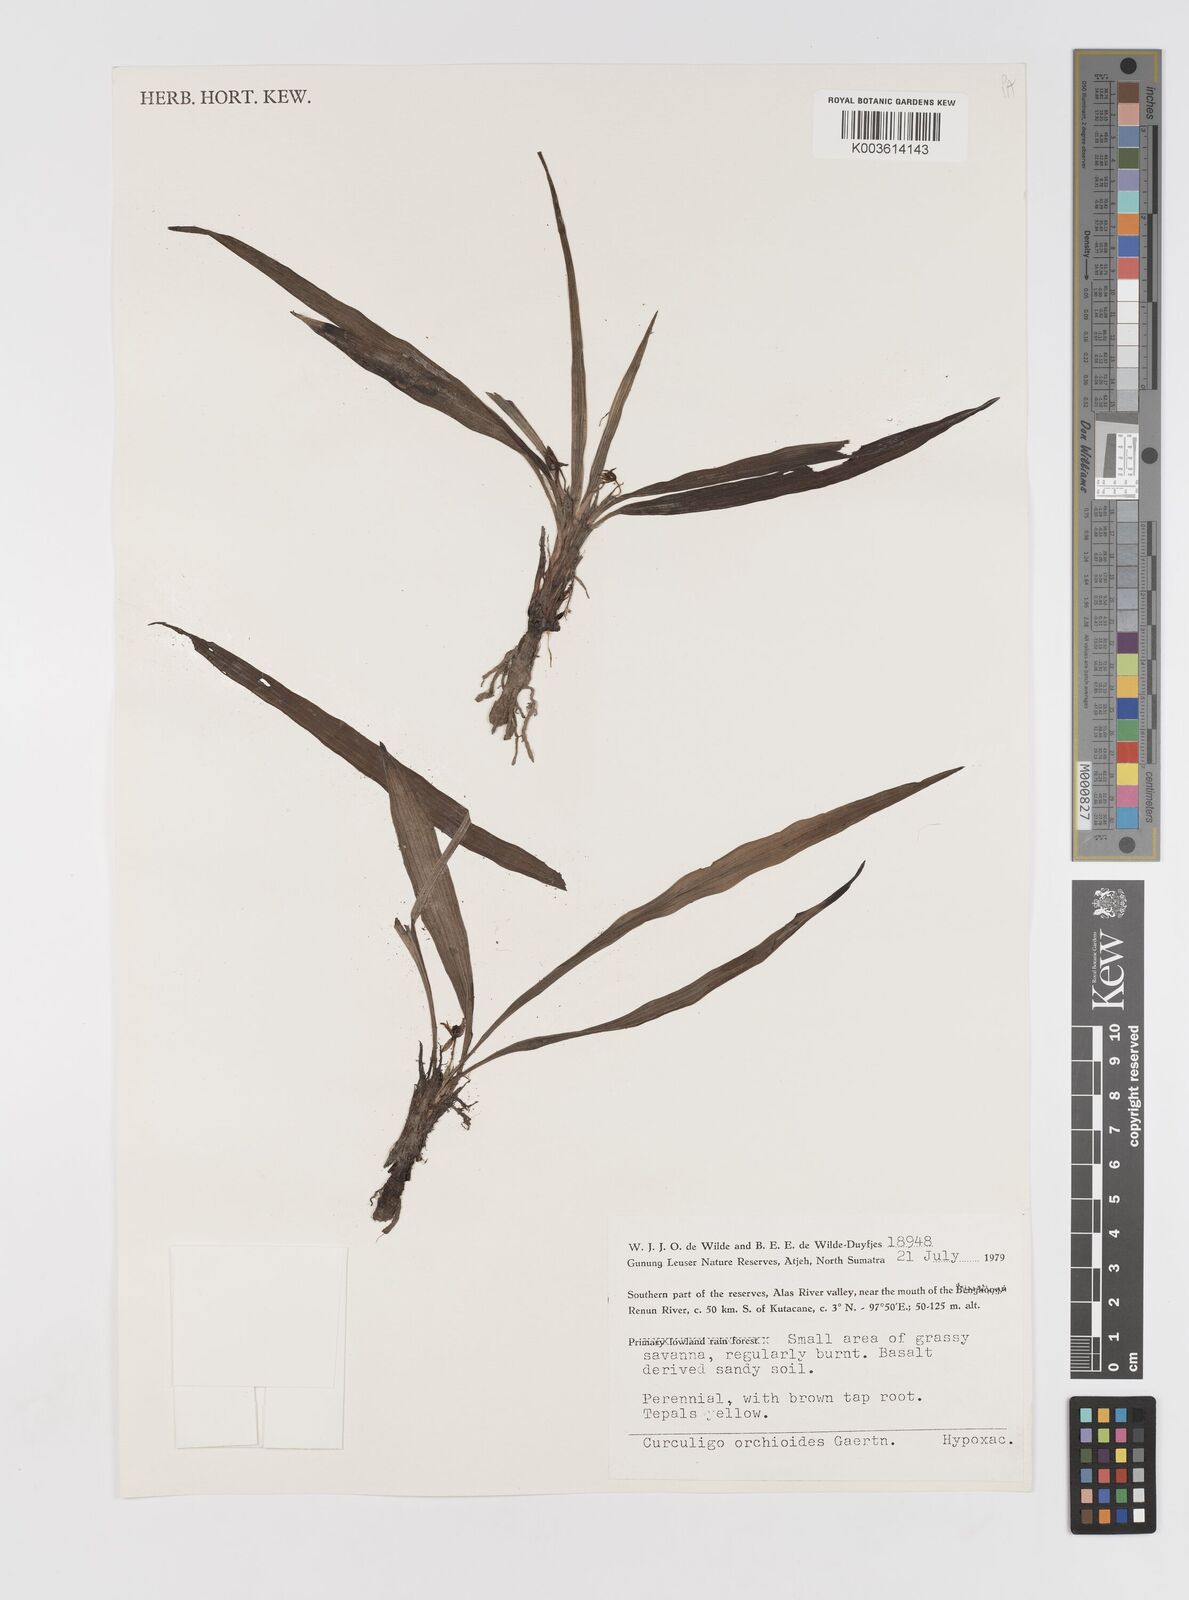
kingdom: Plantae
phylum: Tracheophyta
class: Liliopsida
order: Asparagales
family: Hypoxidaceae
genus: Curculigo
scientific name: Curculigo orchioides
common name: Golden eye-grass
